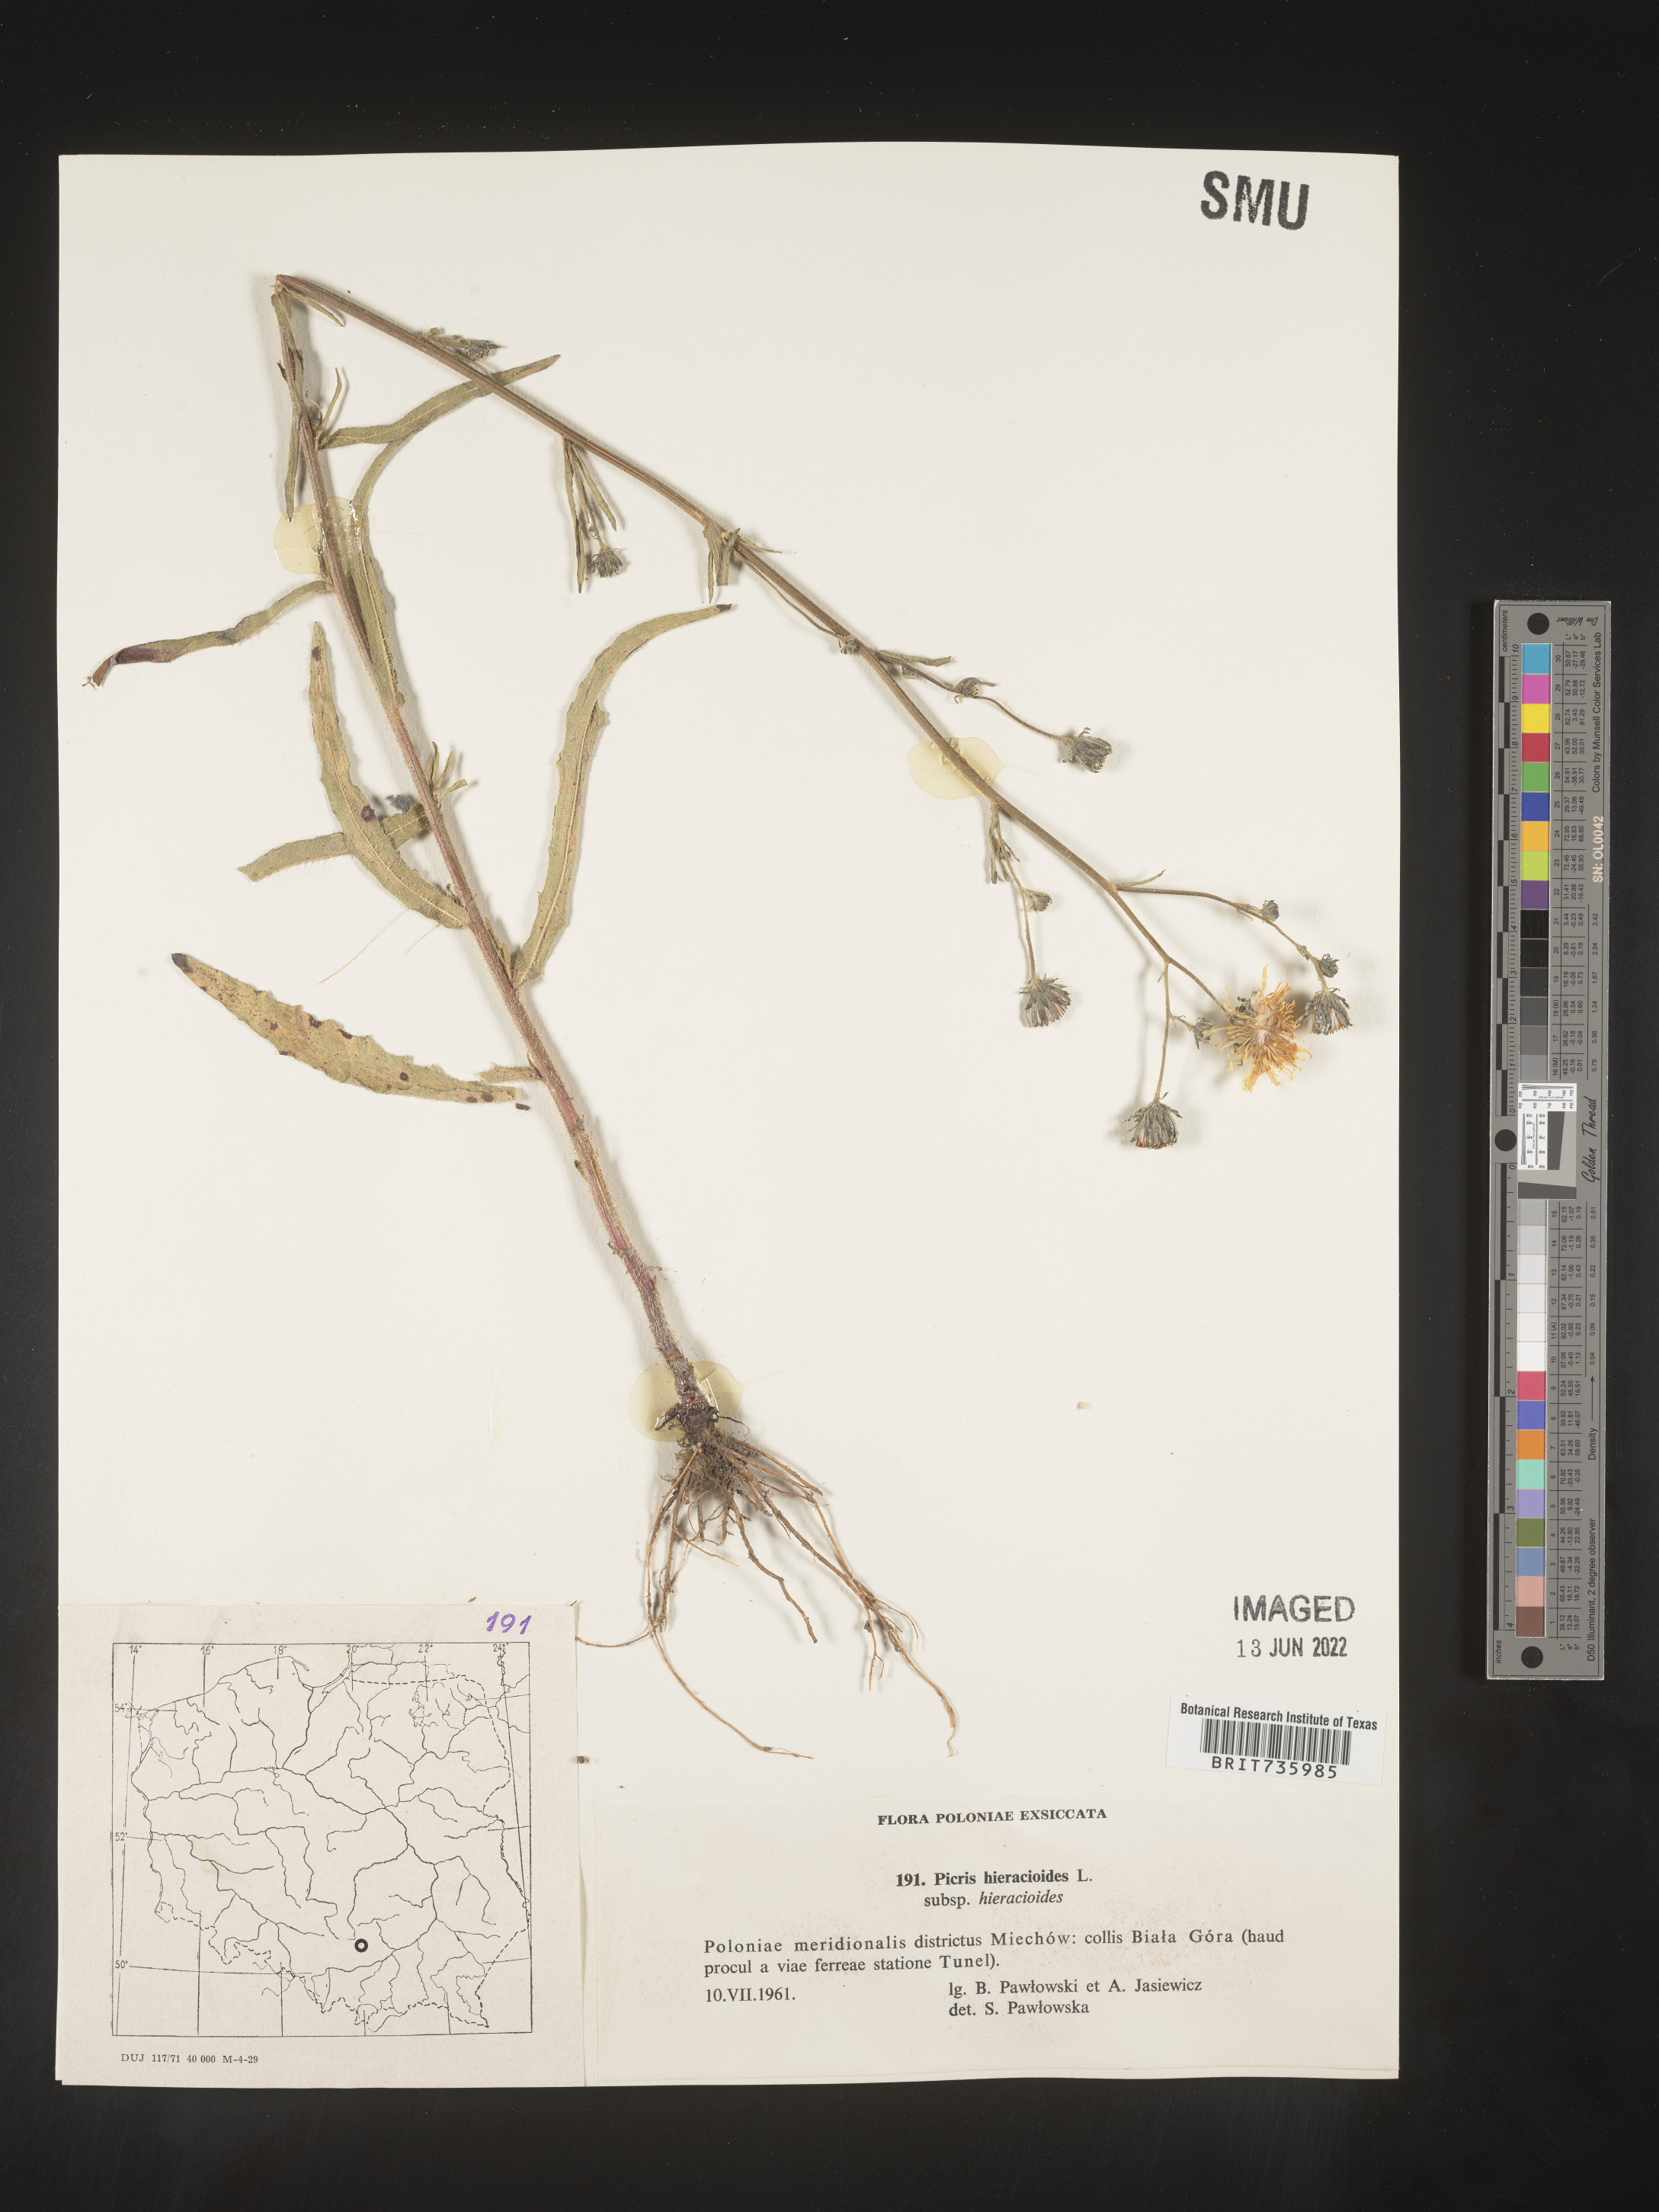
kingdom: Plantae
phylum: Tracheophyta
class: Magnoliopsida
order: Asterales
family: Asteraceae
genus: Picris
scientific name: Picris
